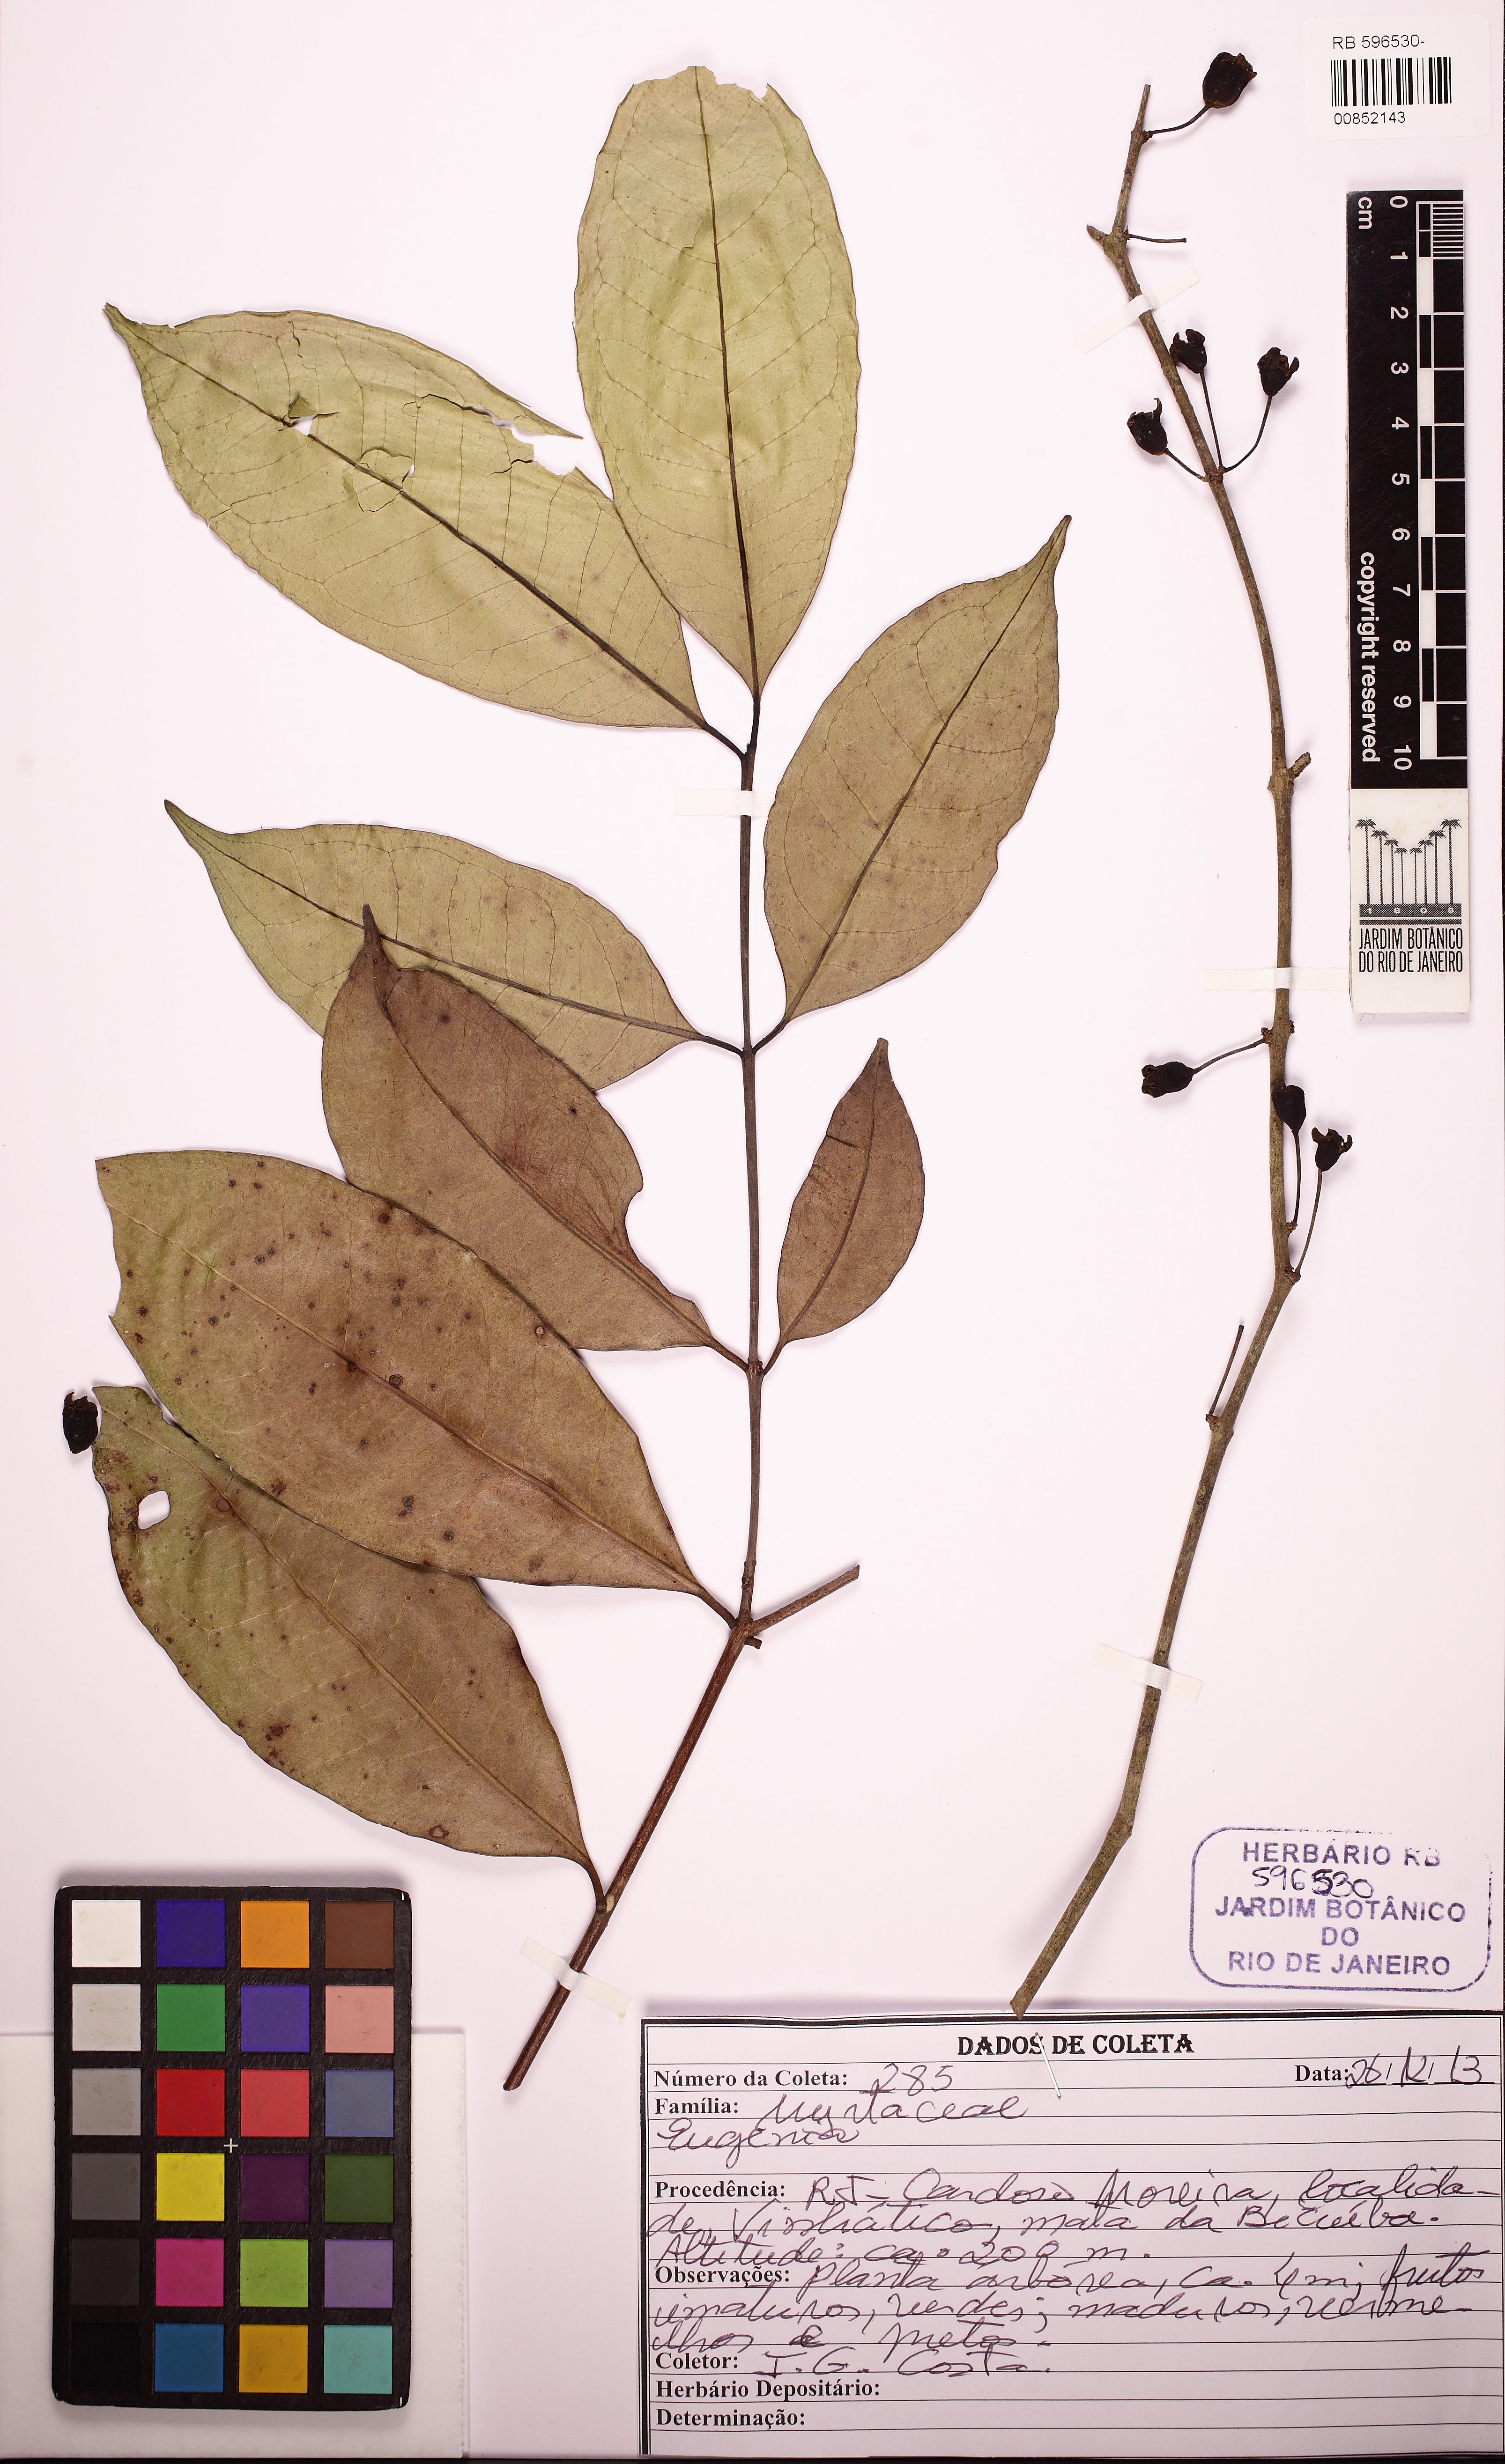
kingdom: Plantae
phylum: Tracheophyta
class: Magnoliopsida
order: Myrtales
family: Myrtaceae
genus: Eugenia
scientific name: Eugenia
